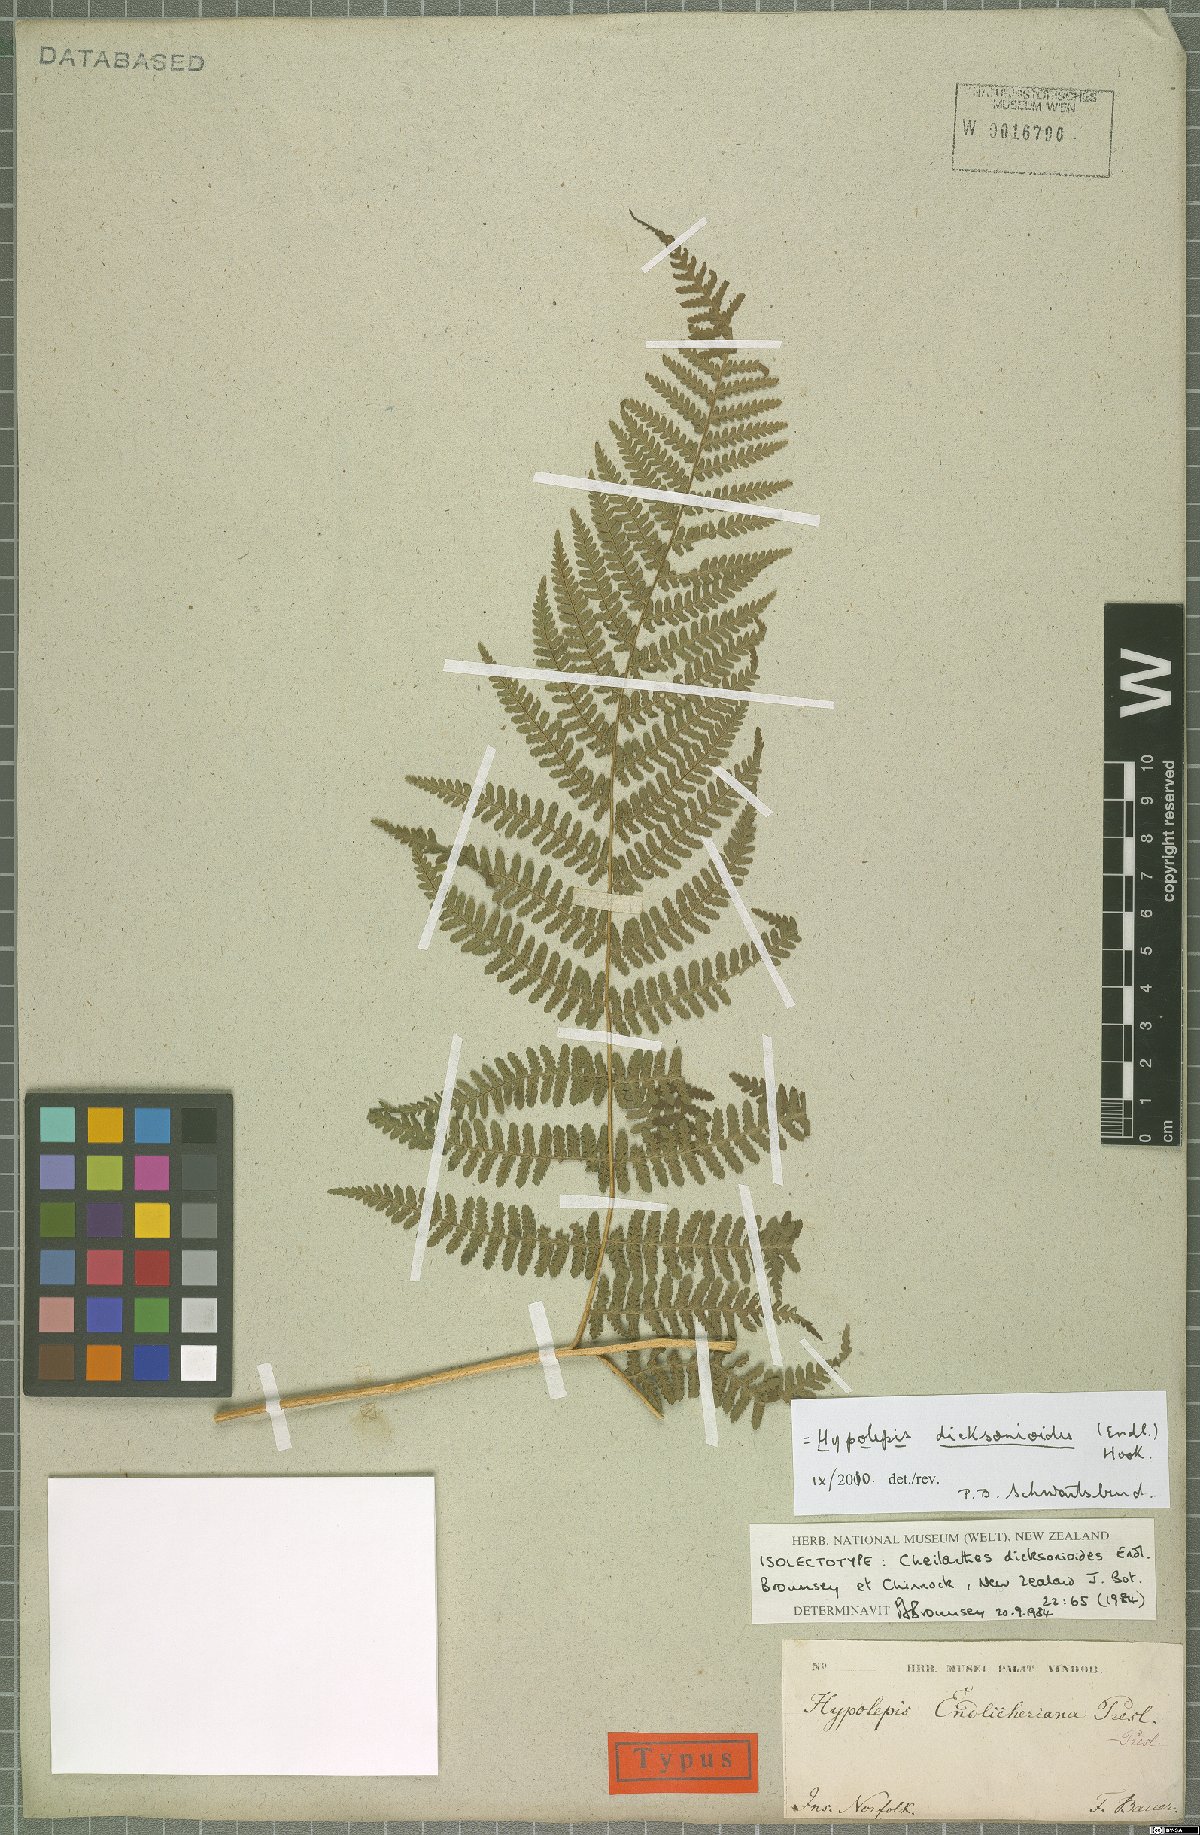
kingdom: Plantae
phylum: Tracheophyta
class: Polypodiopsida
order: Polypodiales
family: Dennstaedtiaceae
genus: Hypolepis
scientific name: Hypolepis dicksonioides
